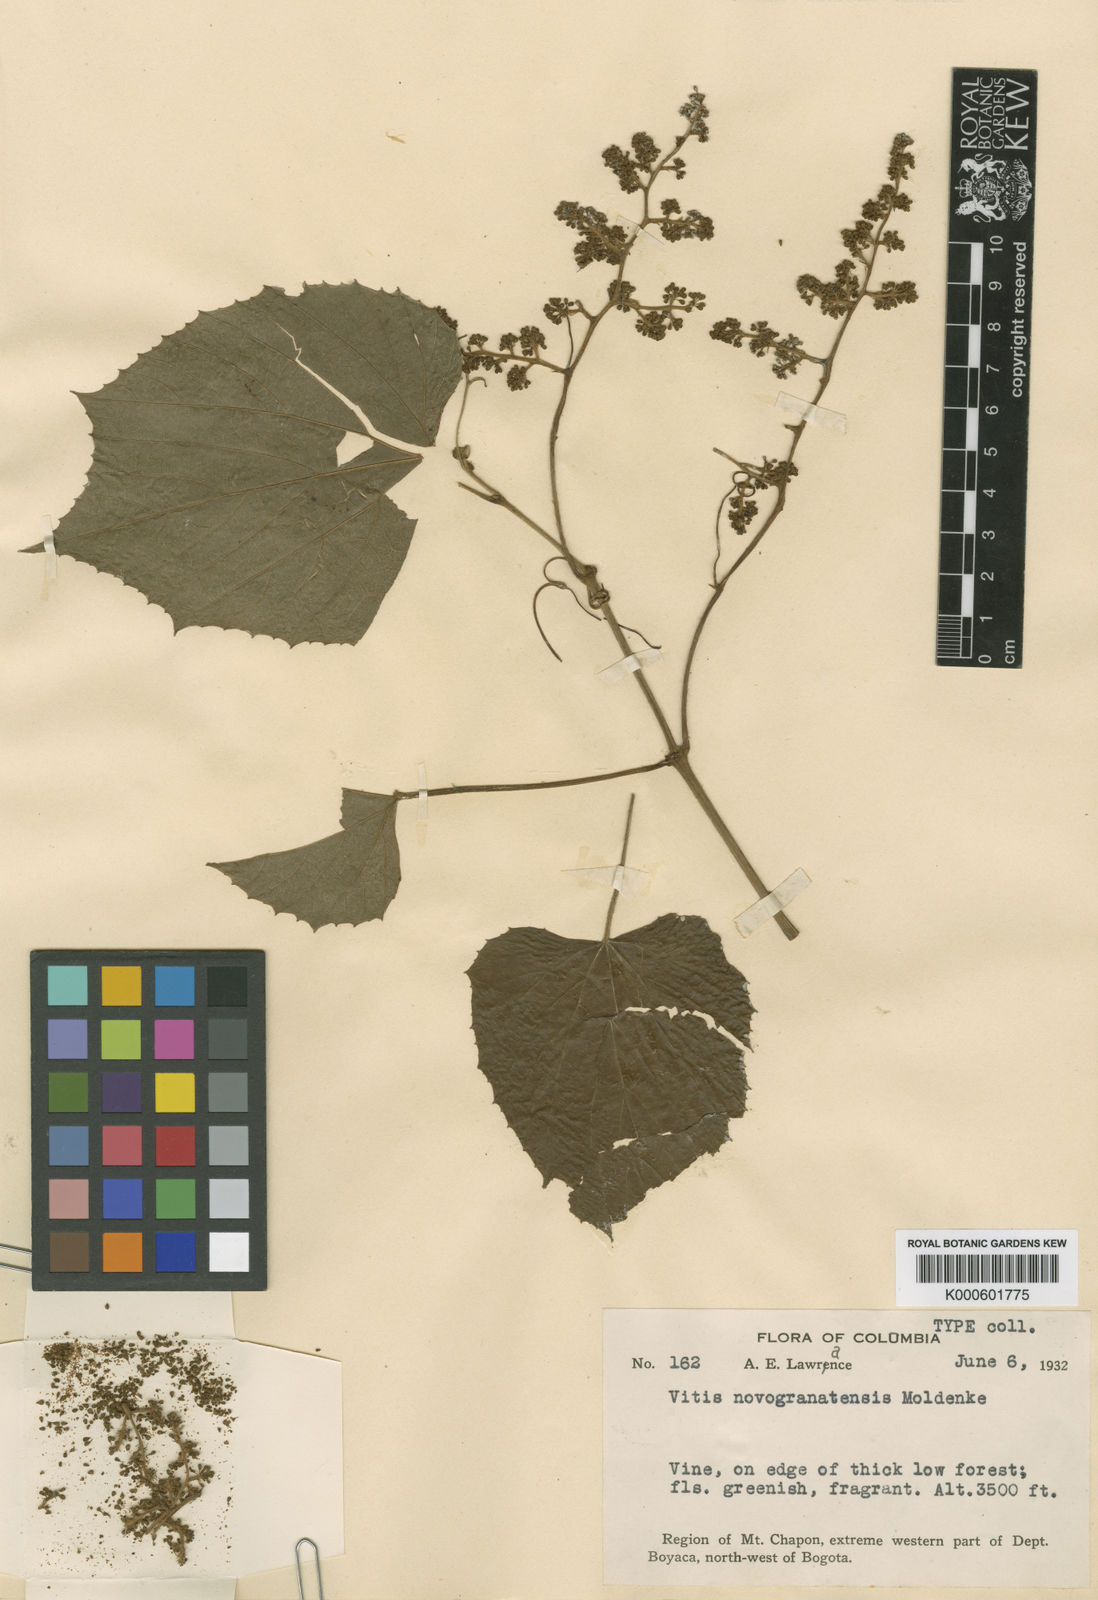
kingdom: Plantae
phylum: Tracheophyta
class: Magnoliopsida
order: Vitales
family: Vitaceae
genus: Cissus
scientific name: Cissus novogranatensis
